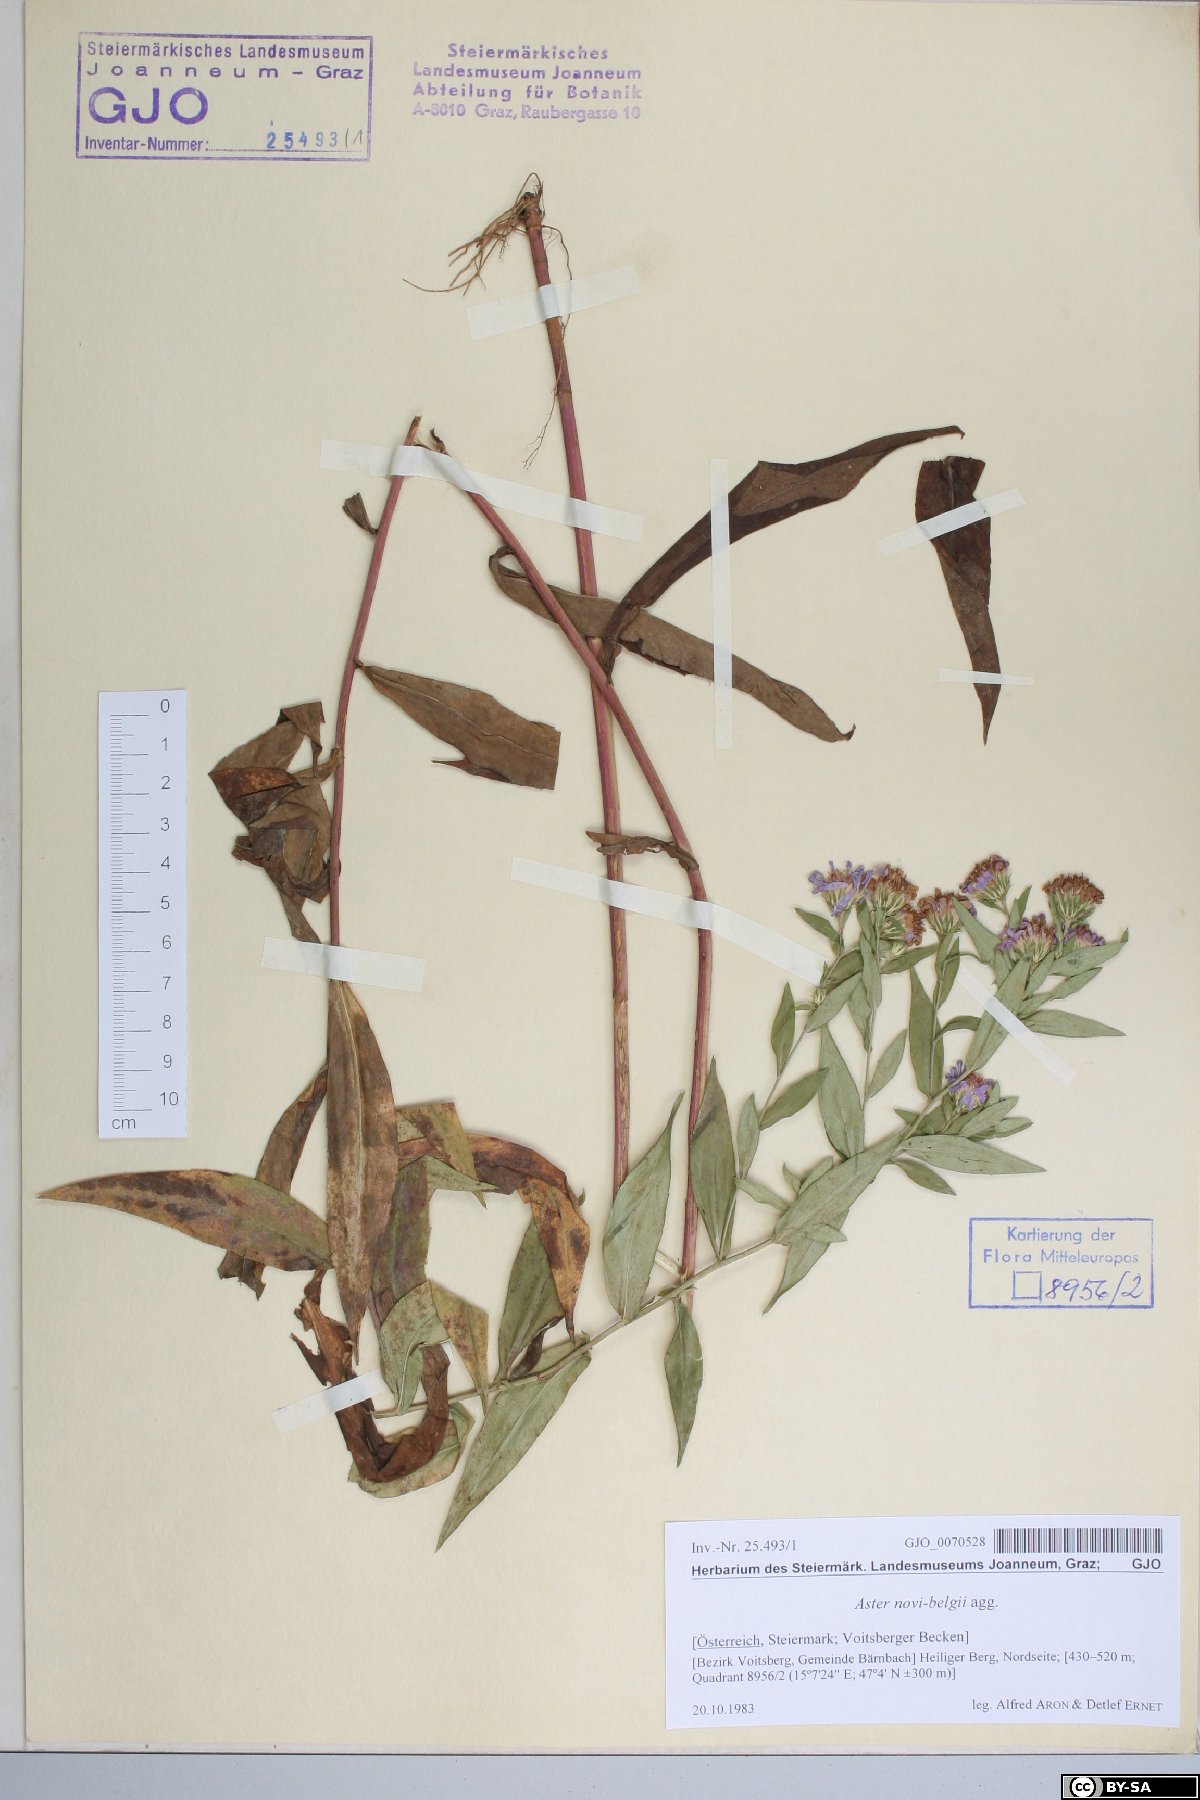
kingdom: Plantae
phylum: Tracheophyta
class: Magnoliopsida
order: Asterales
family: Asteraceae
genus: Symphyotrichum
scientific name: Symphyotrichum novi-belgii
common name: Michaelmas daisy
